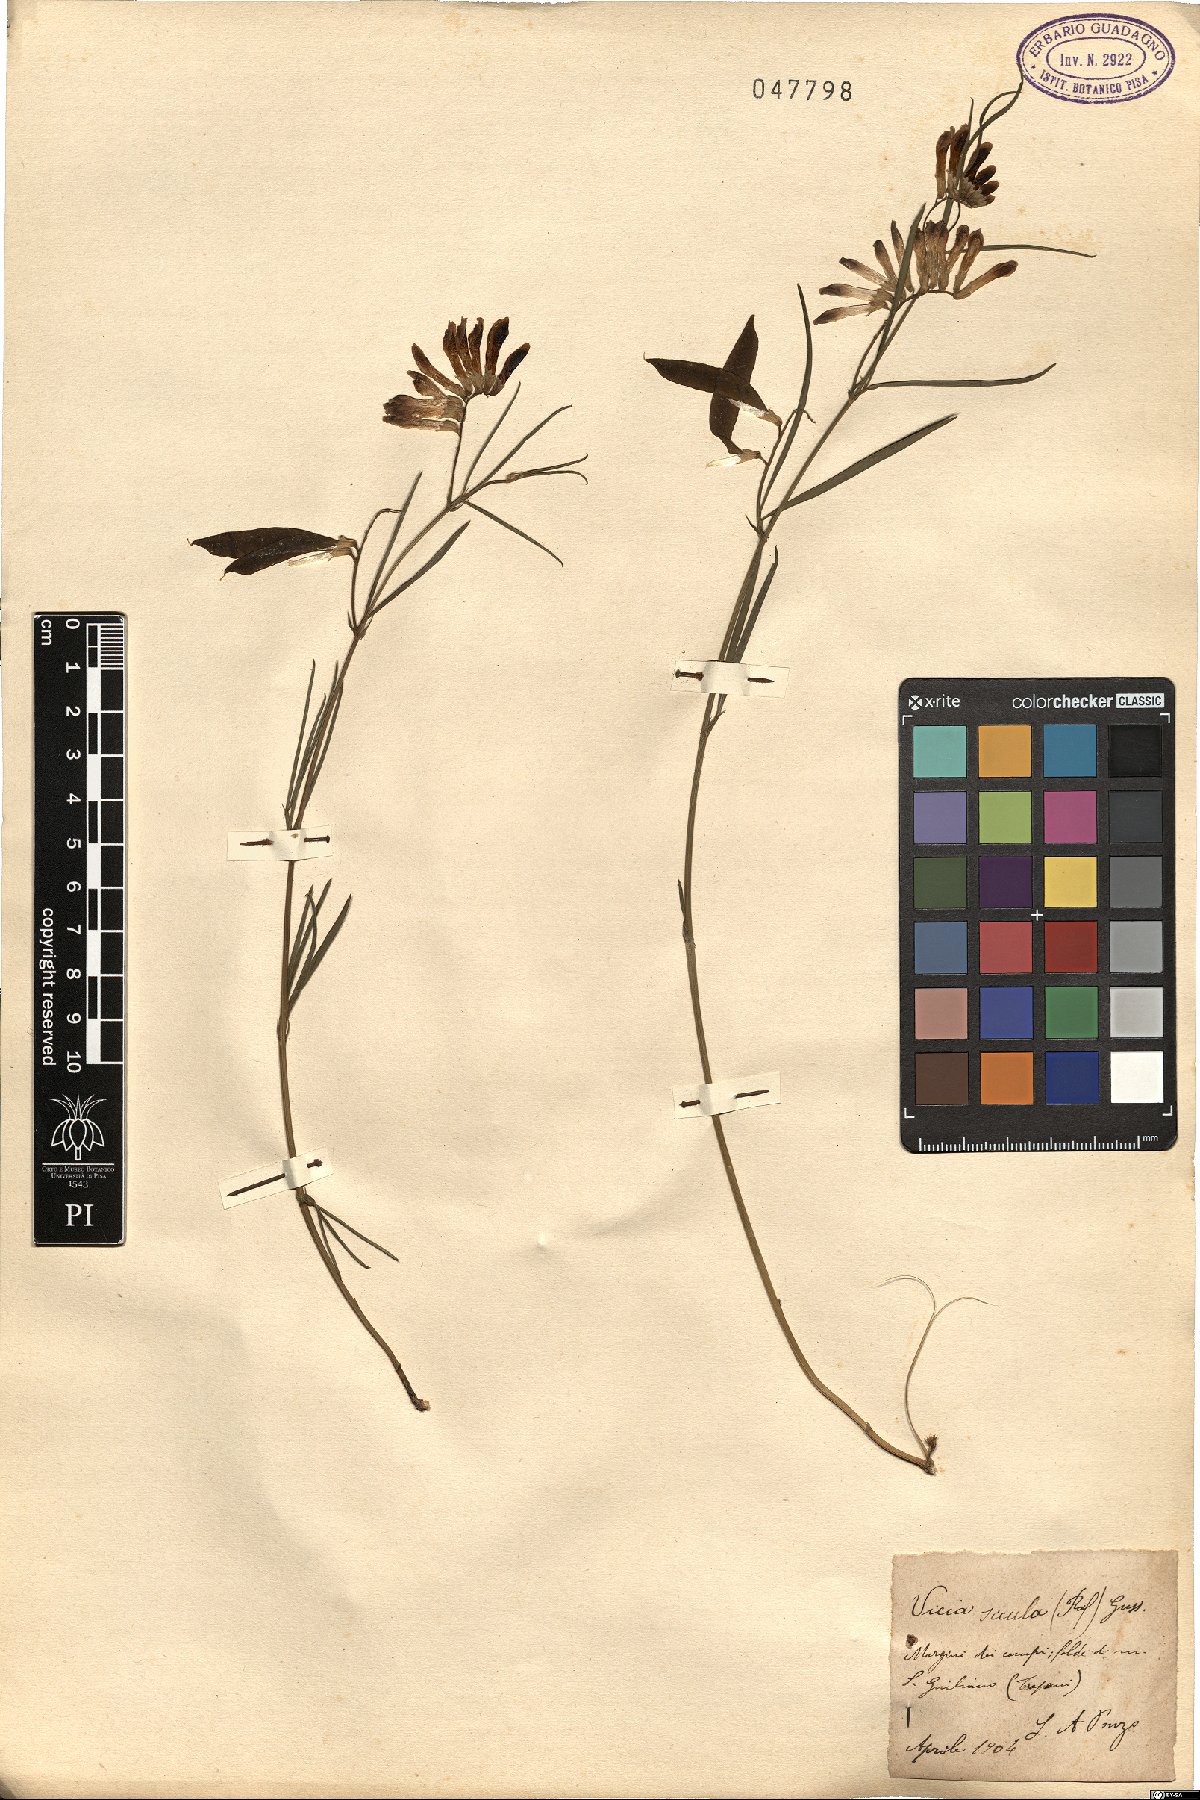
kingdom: Plantae
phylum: Tracheophyta
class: Magnoliopsida
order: Fabales
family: Fabaceae
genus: Vicia
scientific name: Vicia sicula
